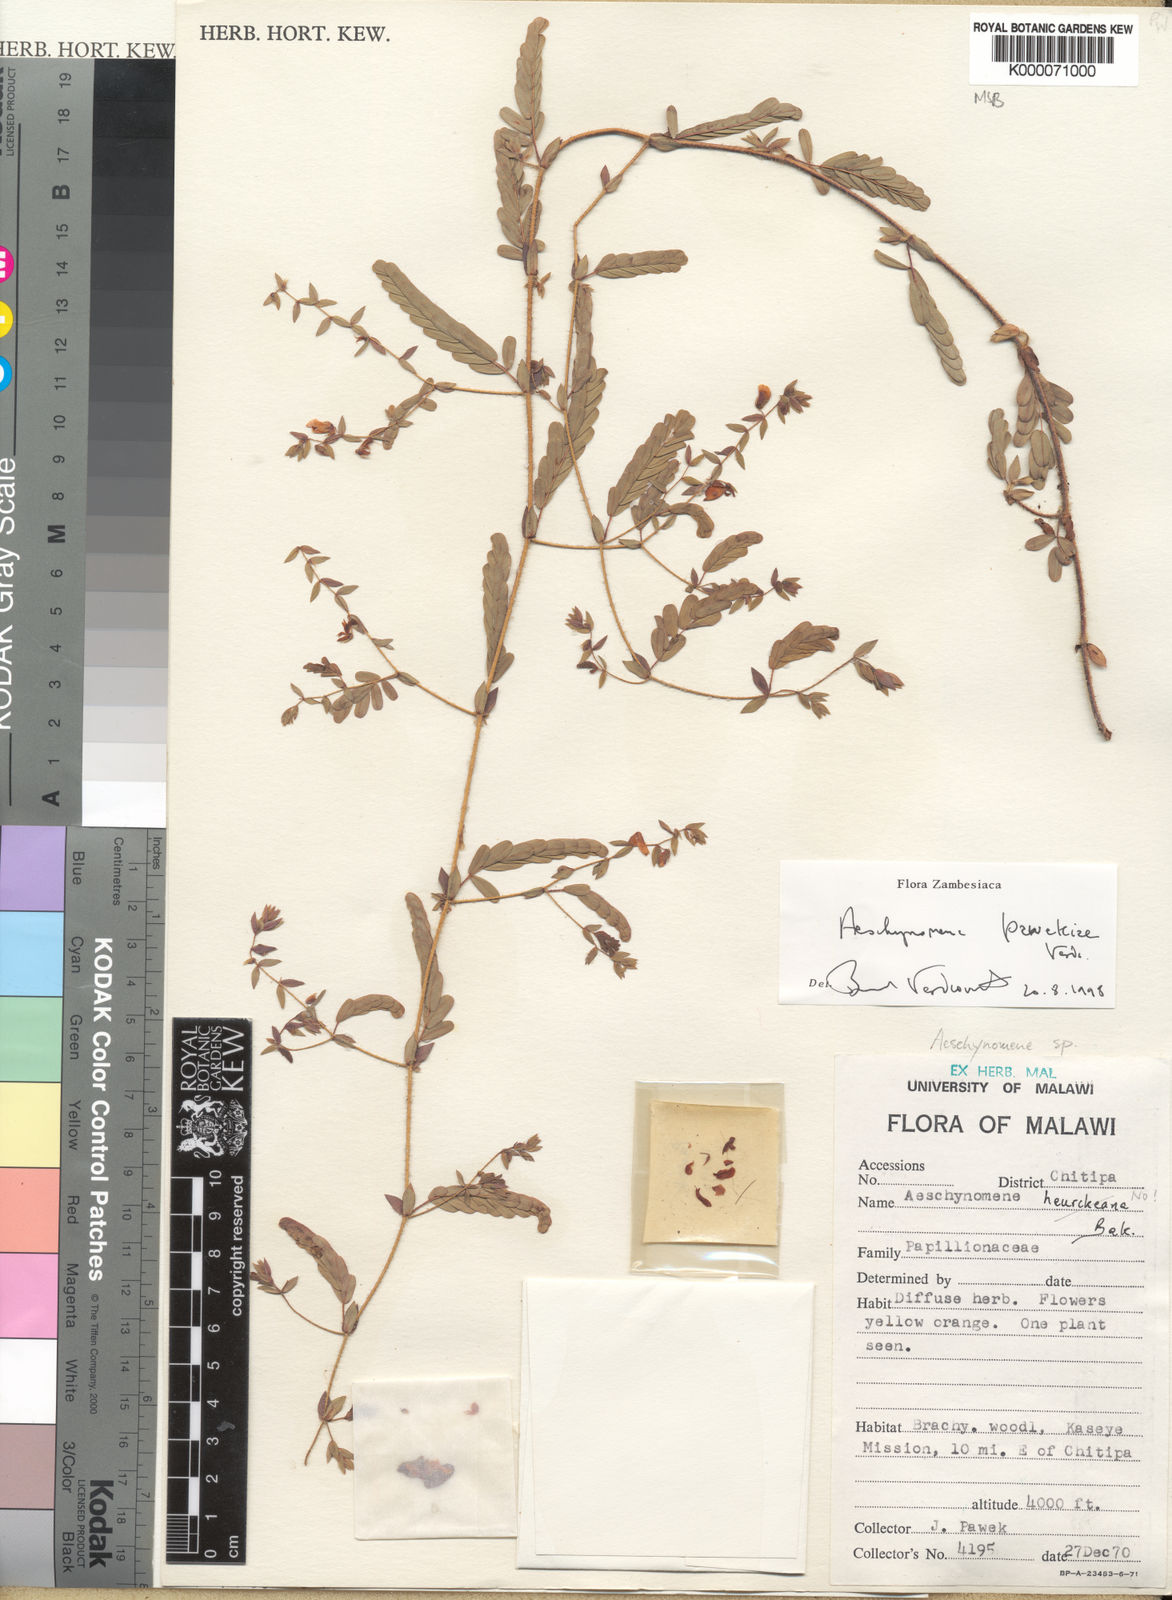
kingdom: Plantae
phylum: Tracheophyta
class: Magnoliopsida
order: Fabales
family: Fabaceae
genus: Aeschynomene
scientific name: Aeschynomene pawekiae
